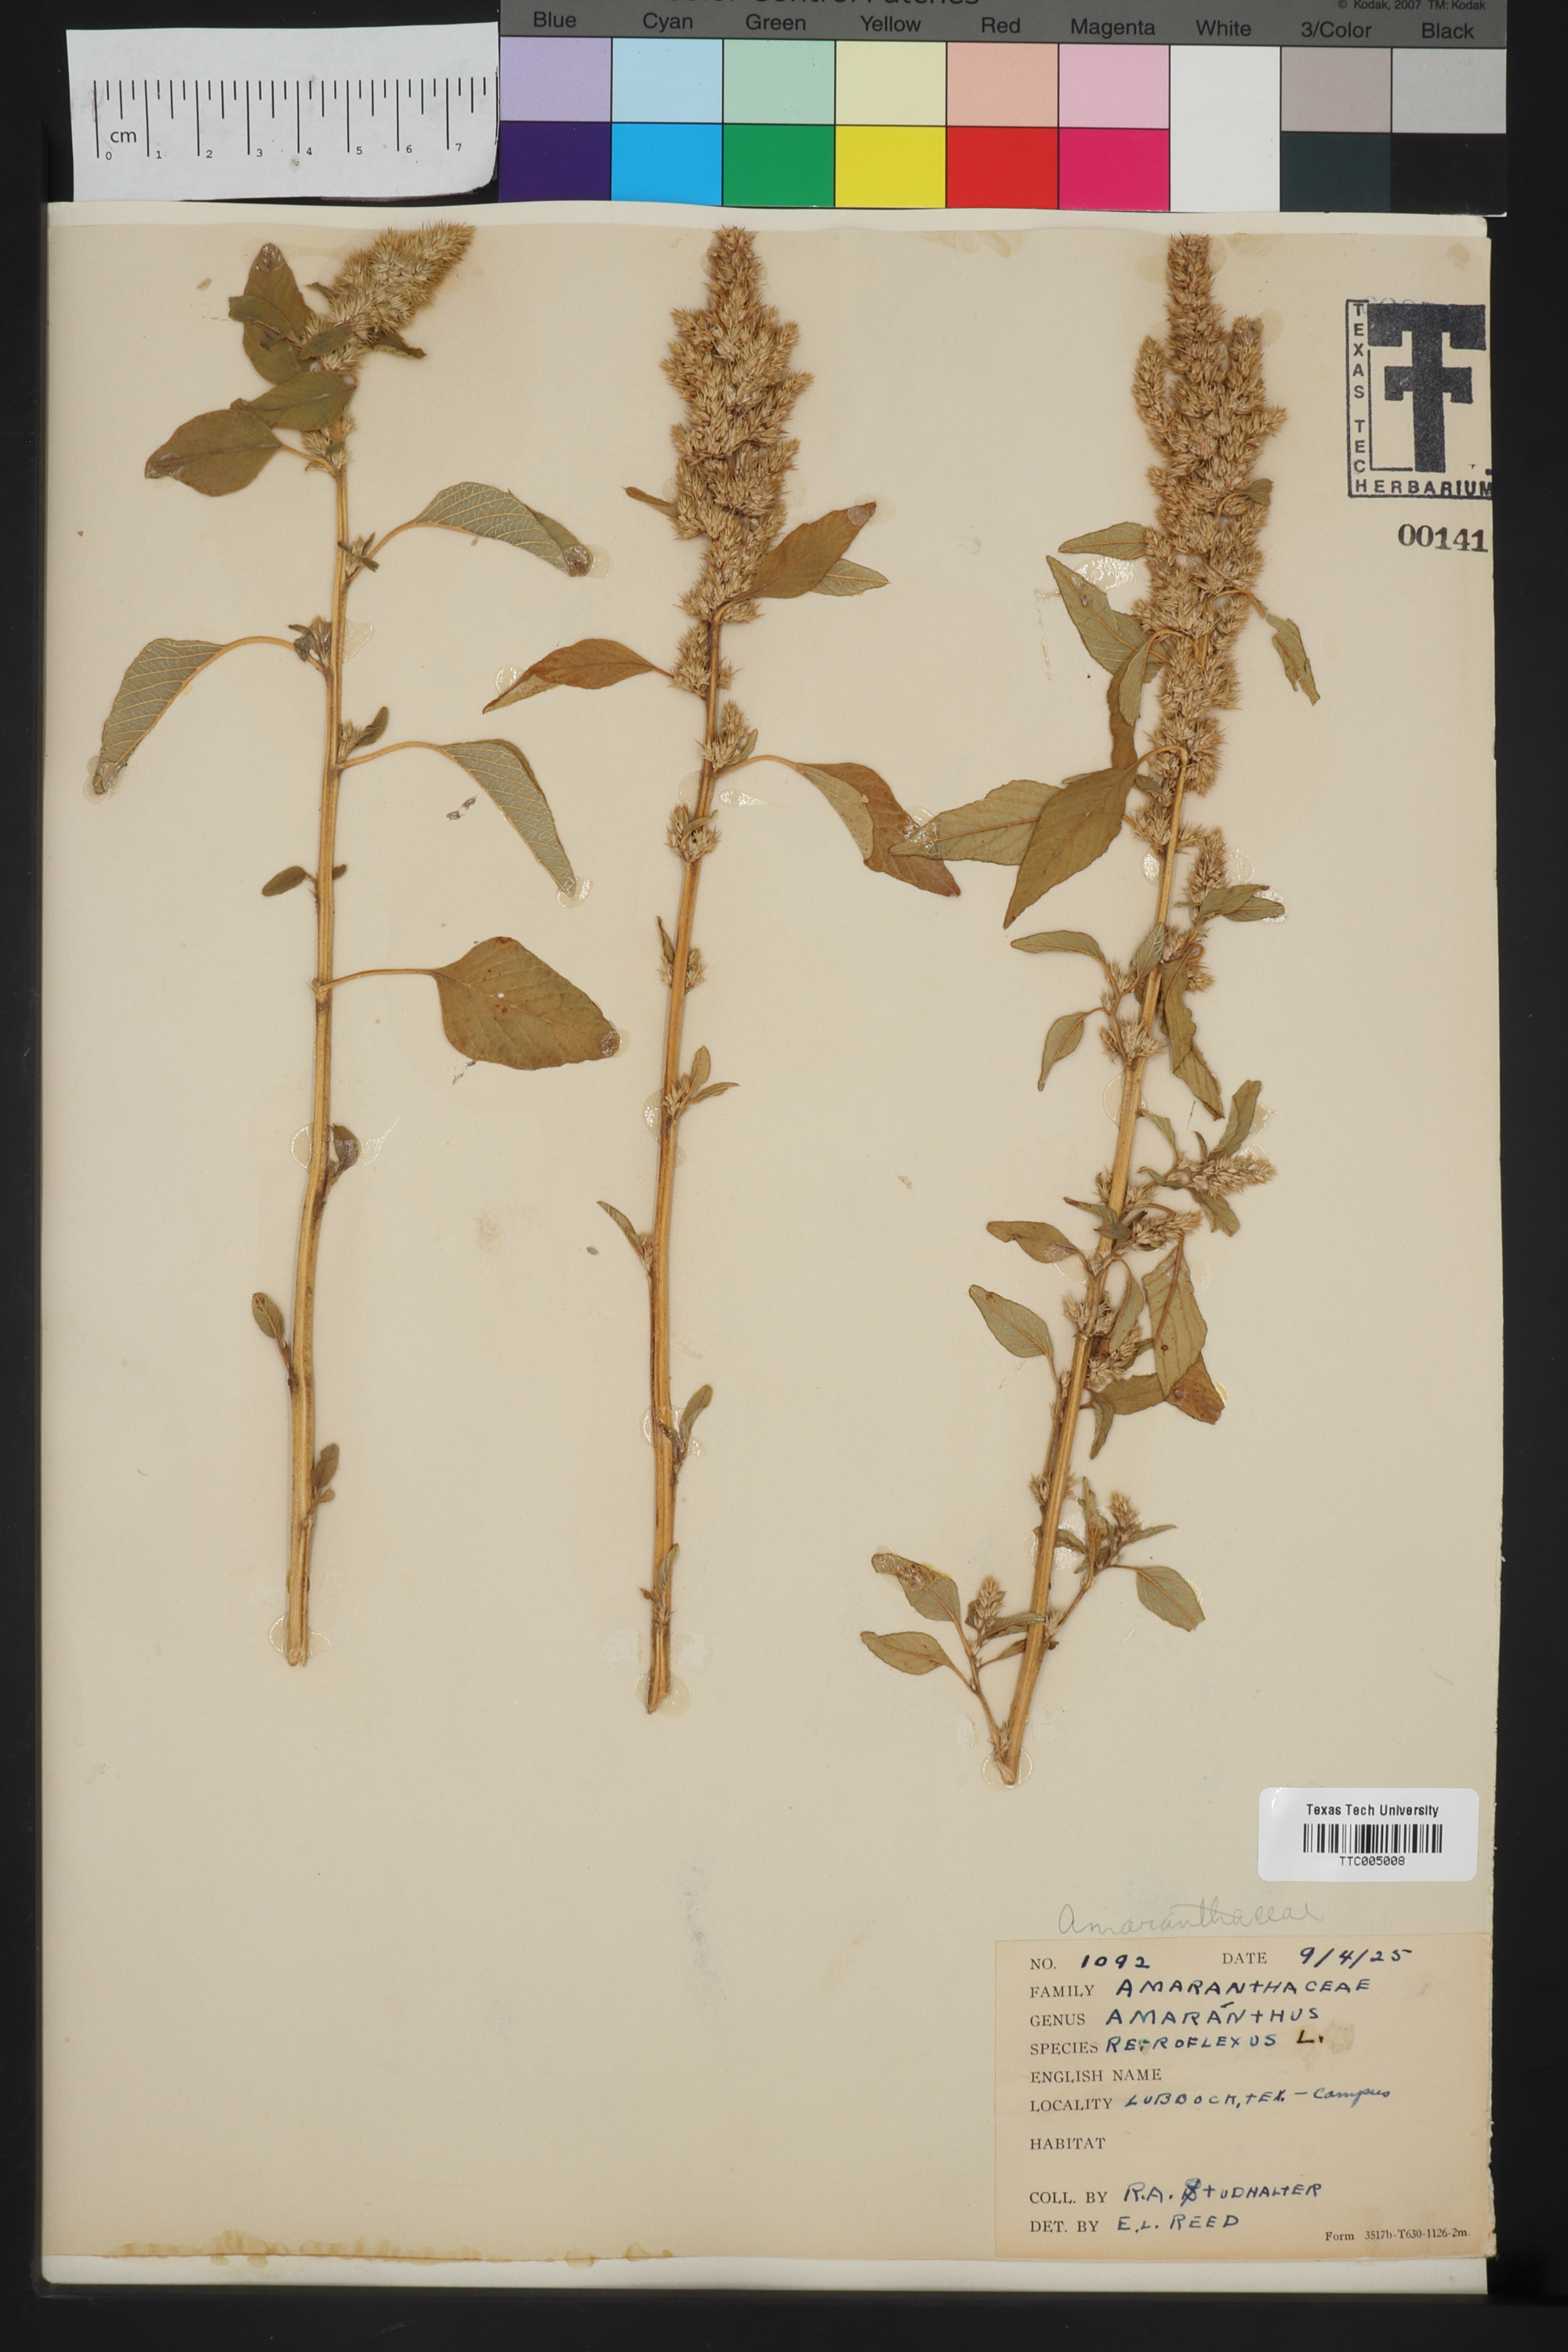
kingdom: Plantae
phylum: Tracheophyta
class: Magnoliopsida
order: Caryophyllales
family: Amaranthaceae
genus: Amaranthus
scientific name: Amaranthus retroflexus
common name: Redroot amaranth
